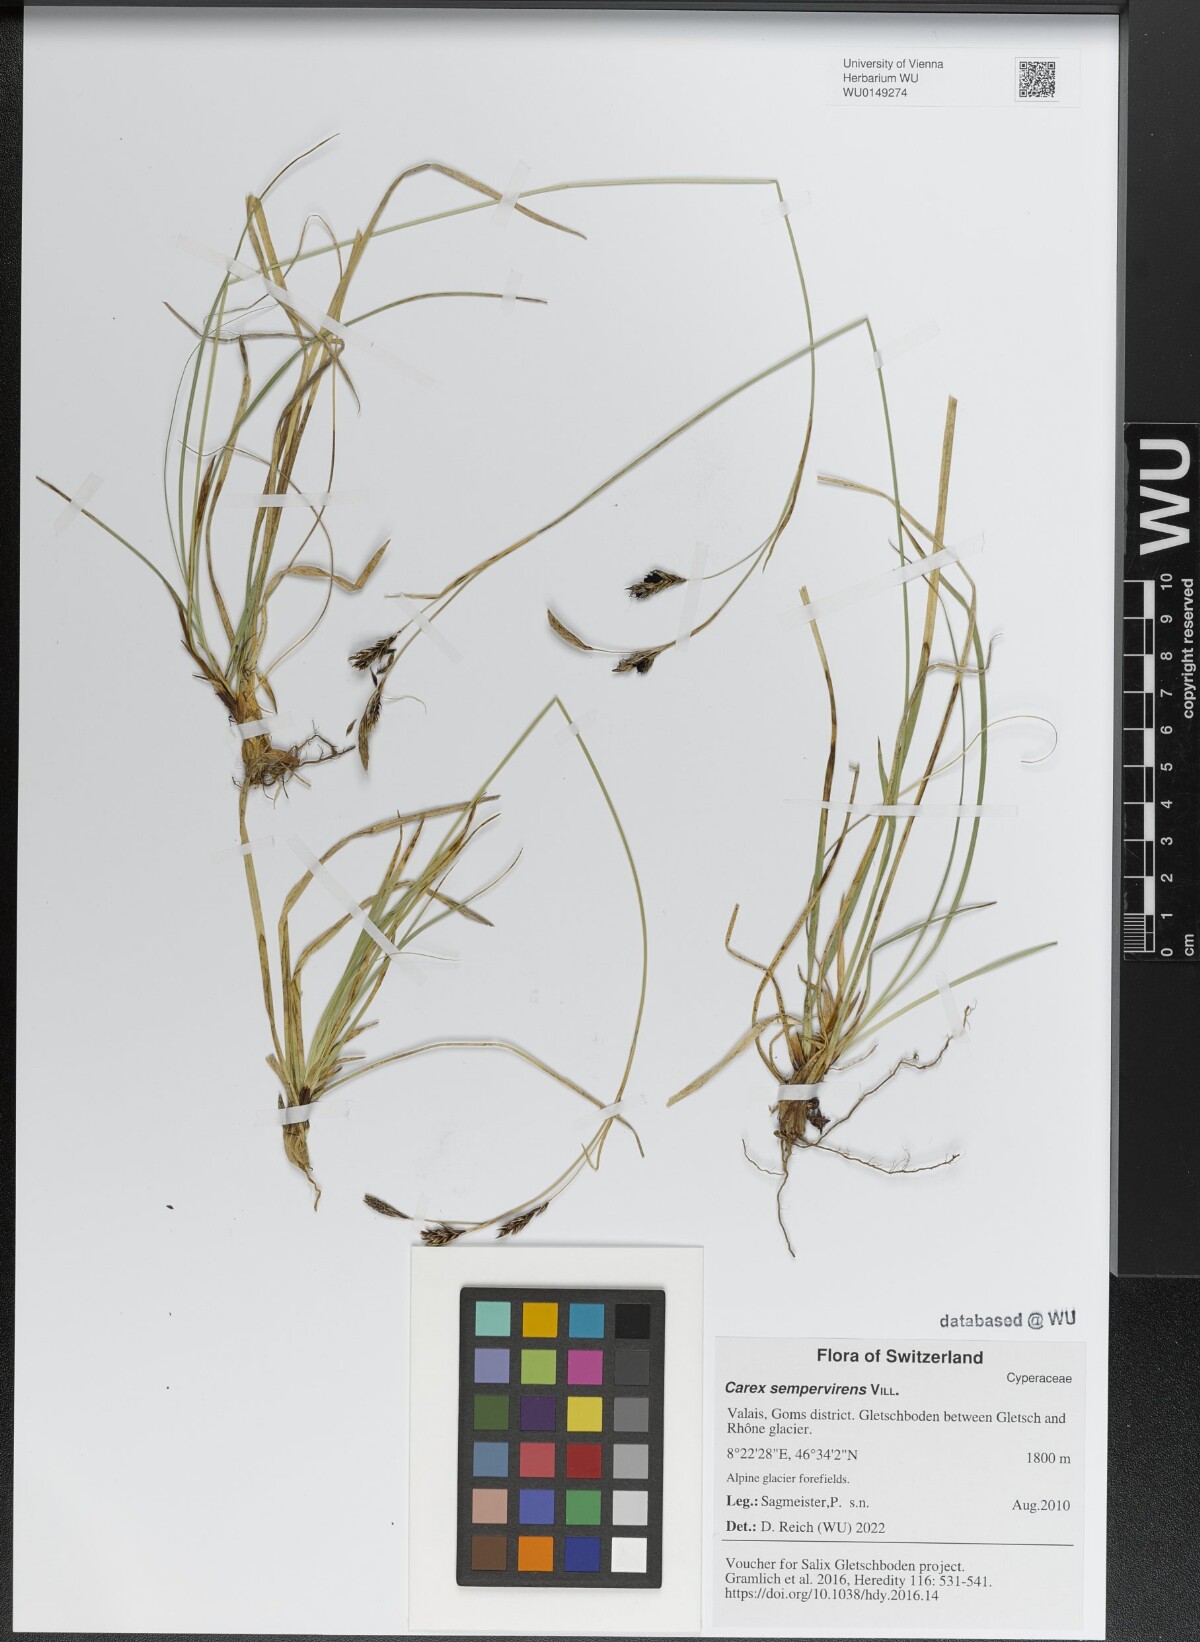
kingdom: Plantae
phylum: Tracheophyta
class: Liliopsida
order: Poales
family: Cyperaceae
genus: Carex
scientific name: Carex sempervirens
